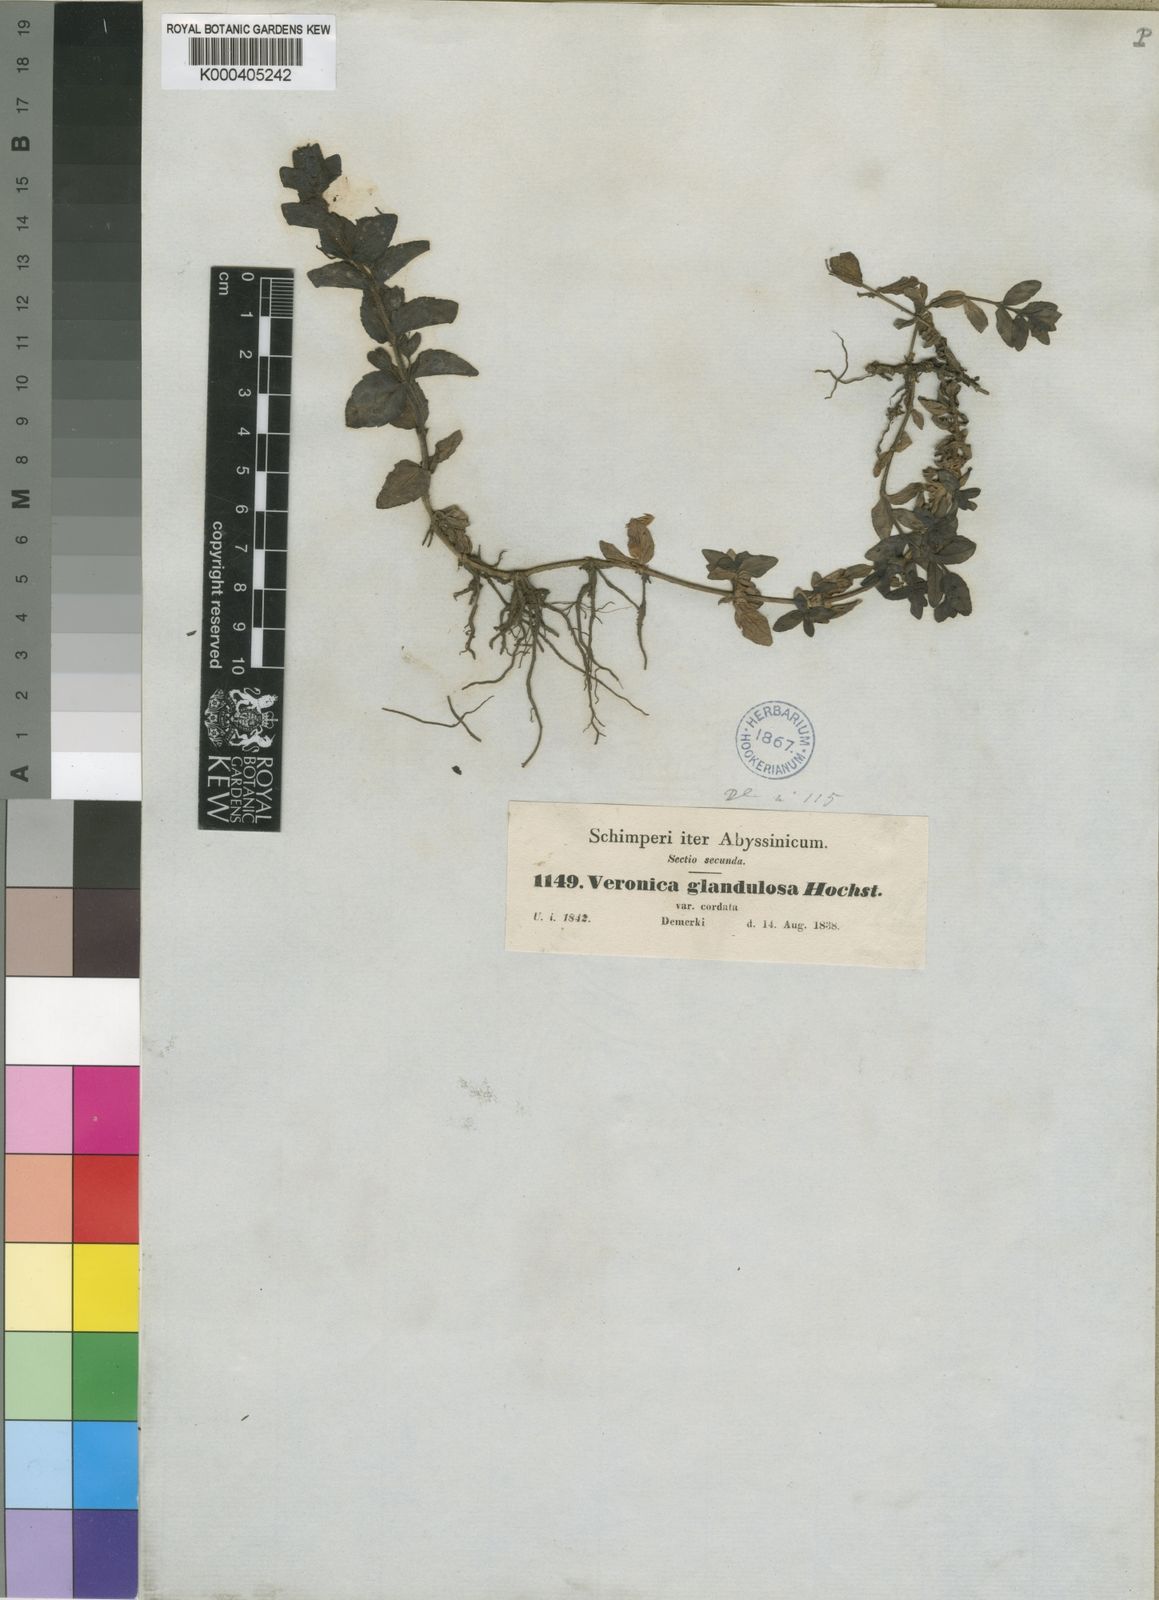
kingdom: Plantae
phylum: Tracheophyta
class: Magnoliopsida
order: Lamiales
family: Plantaginaceae
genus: Veronica
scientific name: Veronica glandulosa
